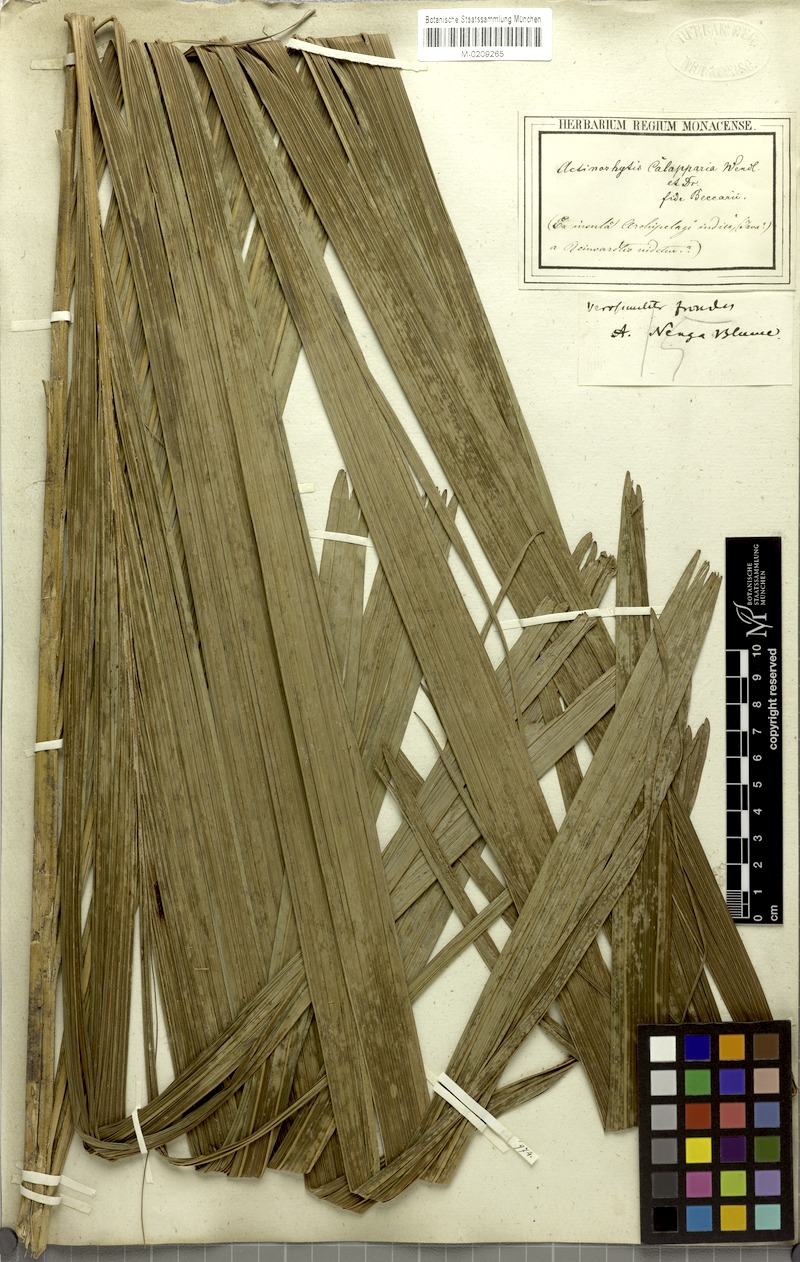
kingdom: Plantae
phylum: Tracheophyta
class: Liliopsida
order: Arecales
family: Arecaceae
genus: Actinorhytis
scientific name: Actinorhytis calapparia
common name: Calappa palm
